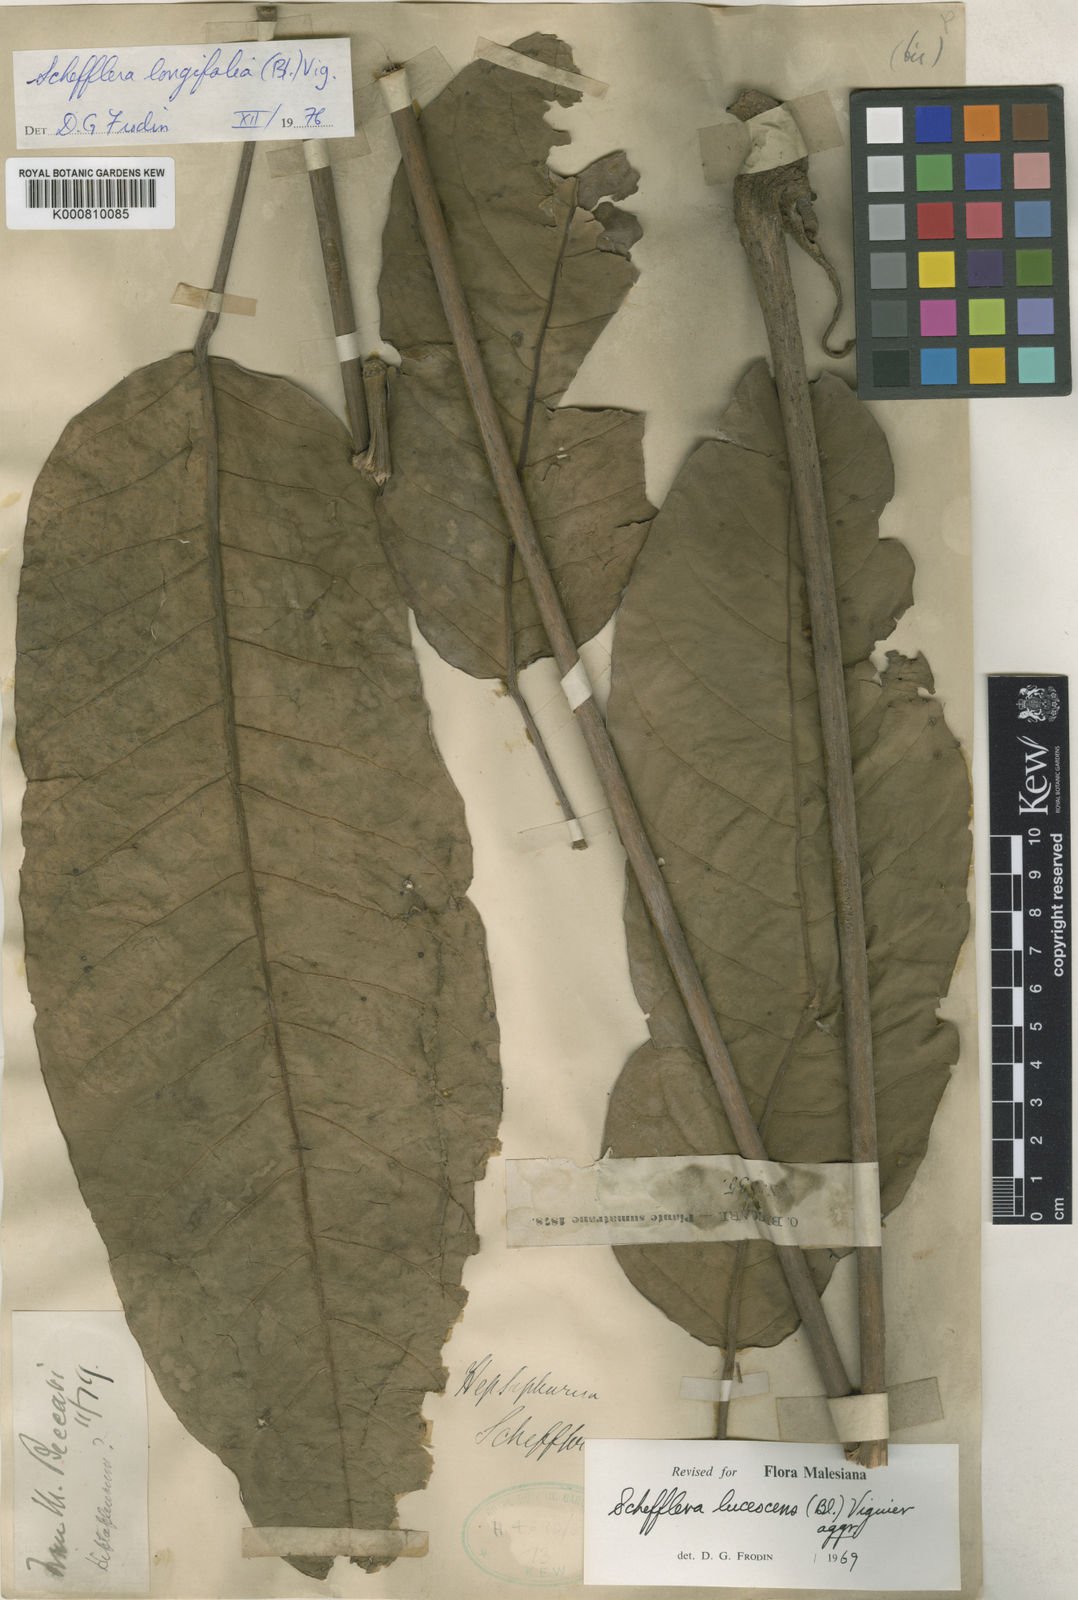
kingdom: Plantae
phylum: Tracheophyta
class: Magnoliopsida
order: Apiales
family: Araliaceae
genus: Heptapleurum
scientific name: Heptapleurum longifolium
